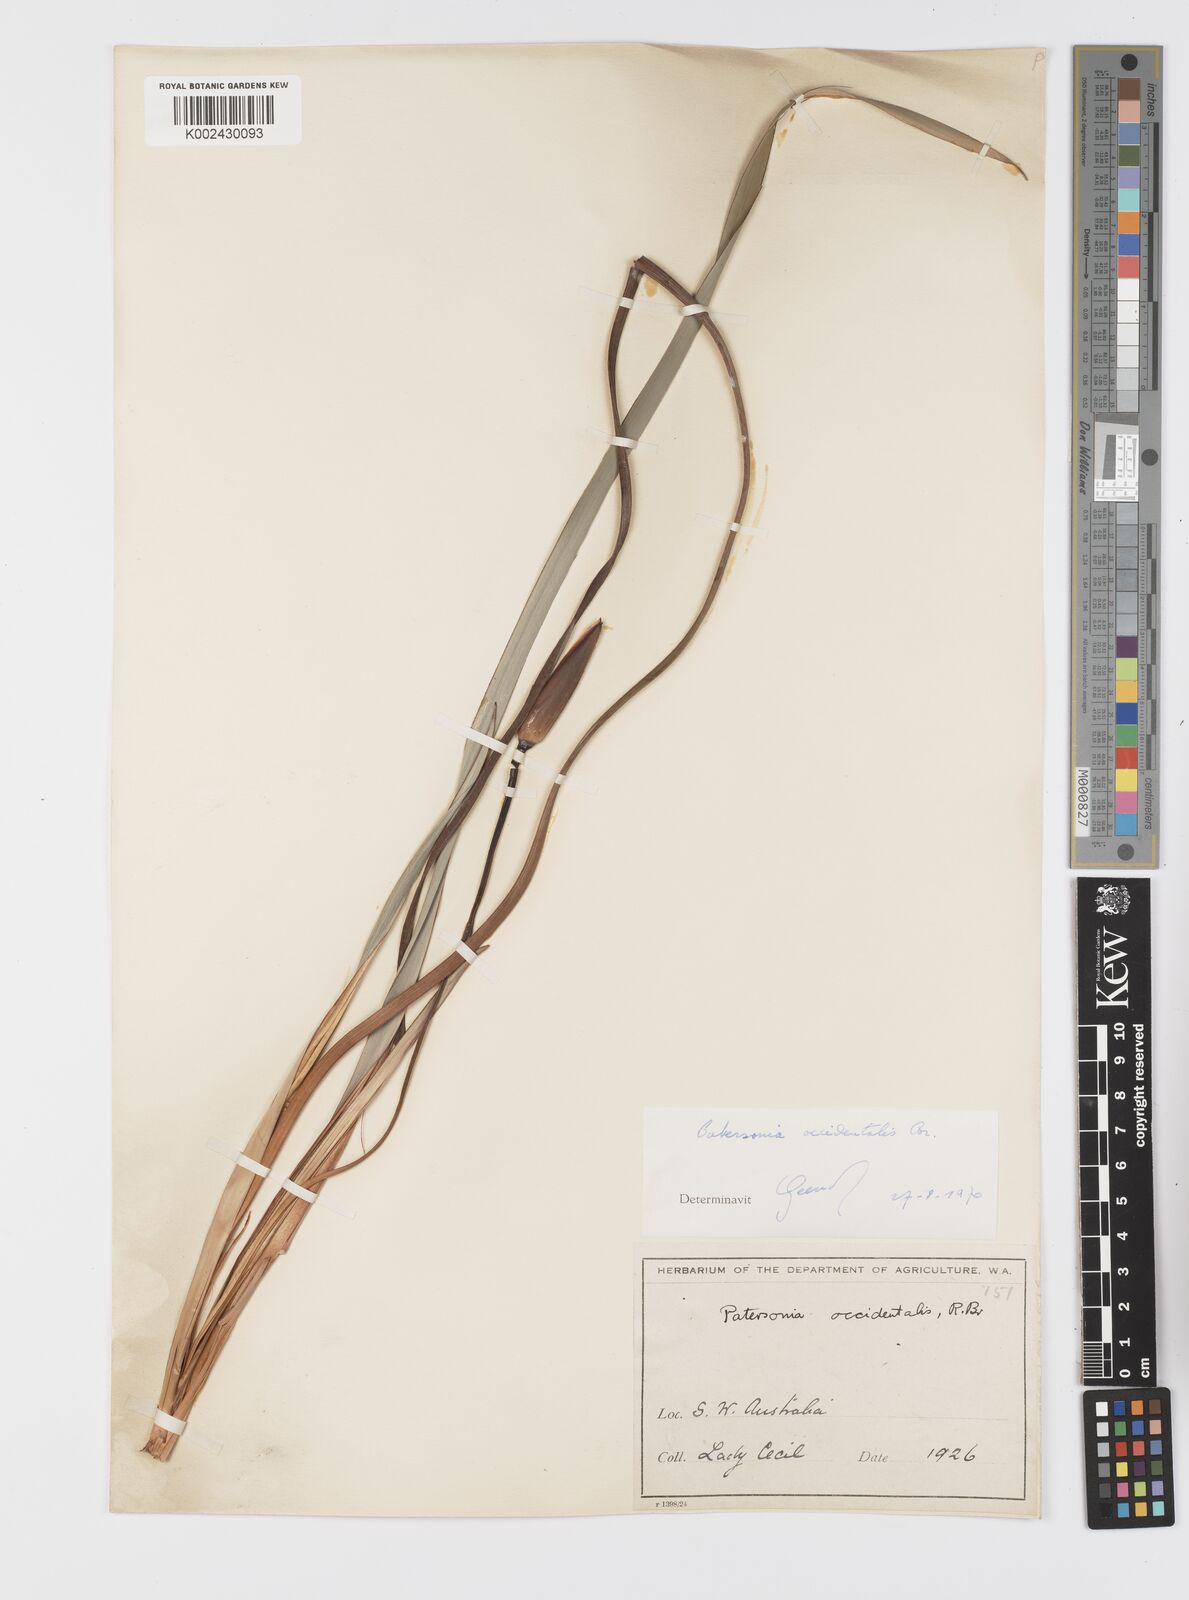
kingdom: Plantae
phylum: Tracheophyta
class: Liliopsida
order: Asparagales
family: Iridaceae
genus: Patersonia
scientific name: Patersonia occidentalis
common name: Long purple-flag
